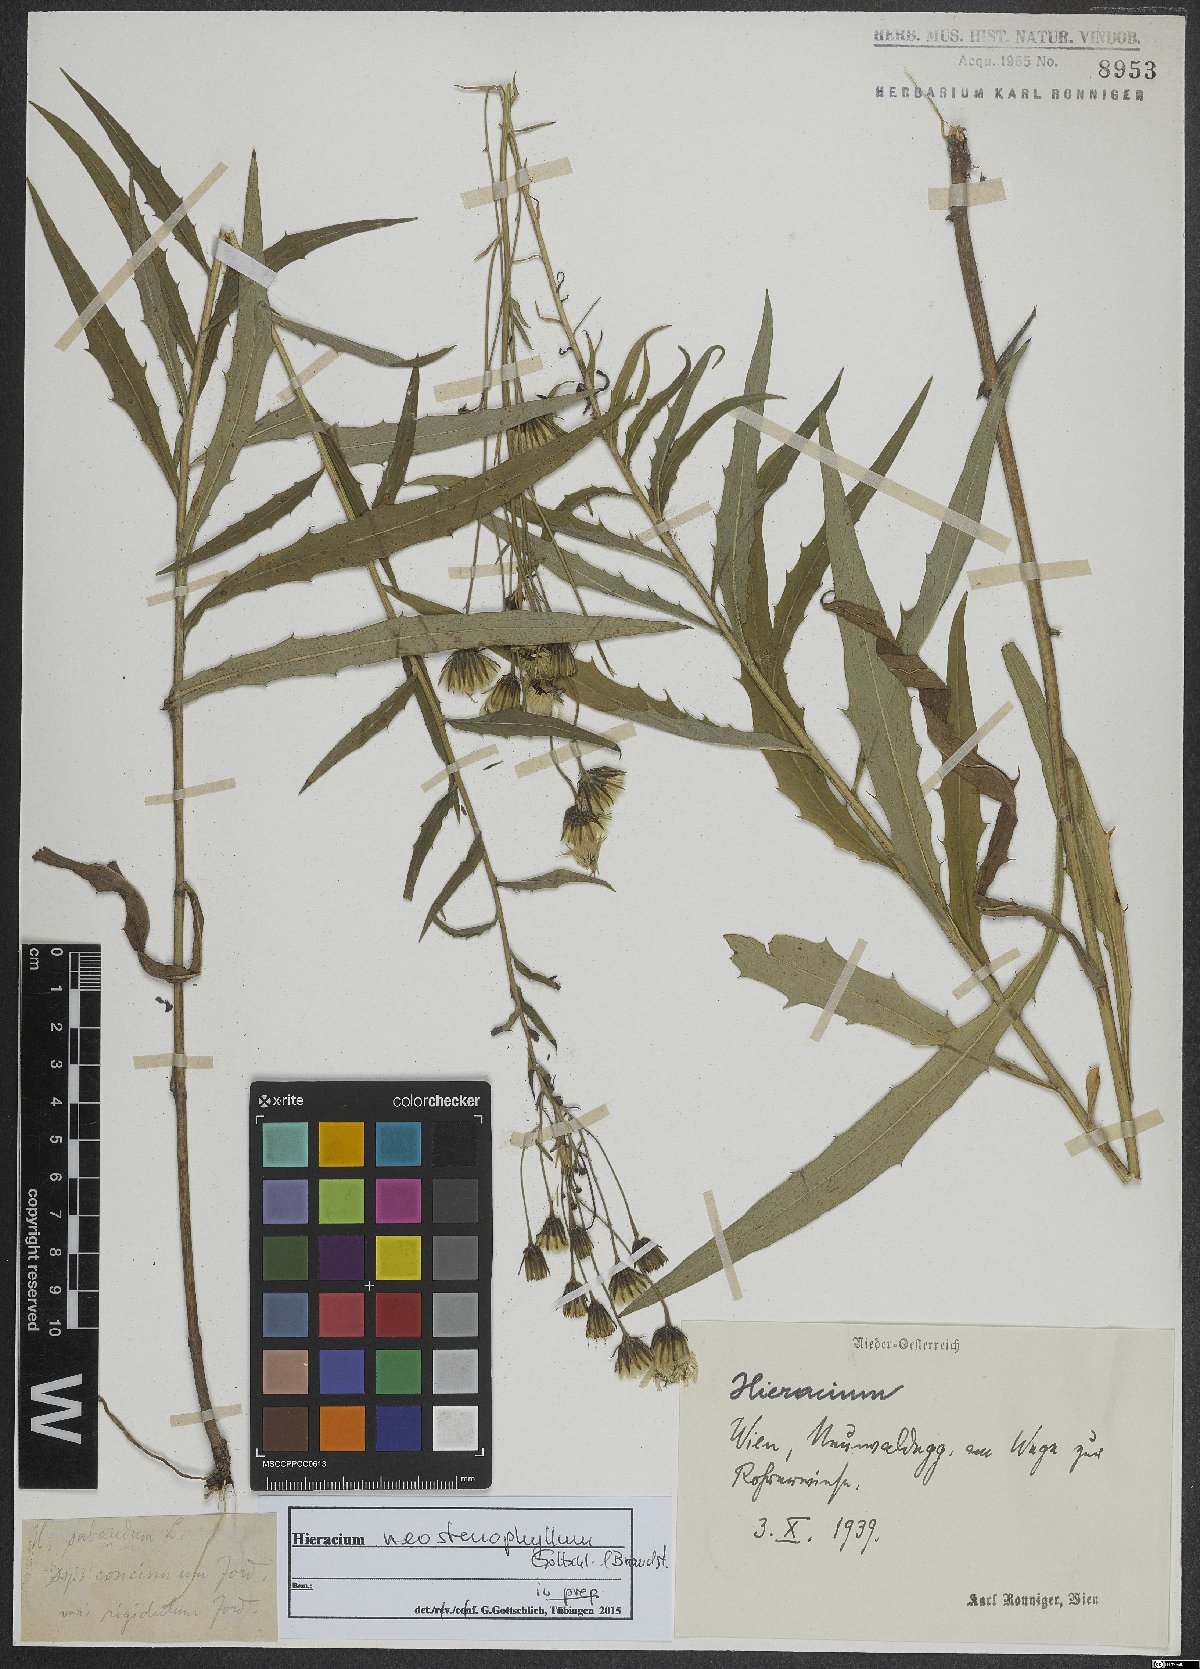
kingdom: Plantae
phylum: Tracheophyta
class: Magnoliopsida
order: Asterales
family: Asteraceae
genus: Hieracium
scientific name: Hieracium neostenophyllum
